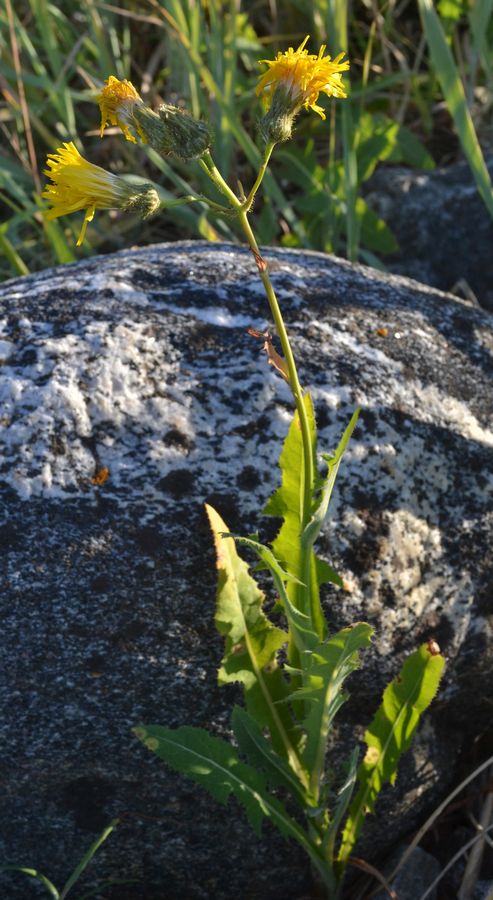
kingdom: Plantae
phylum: Tracheophyta
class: Magnoliopsida
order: Asterales
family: Asteraceae
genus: Sonchus
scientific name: Sonchus arvensis
